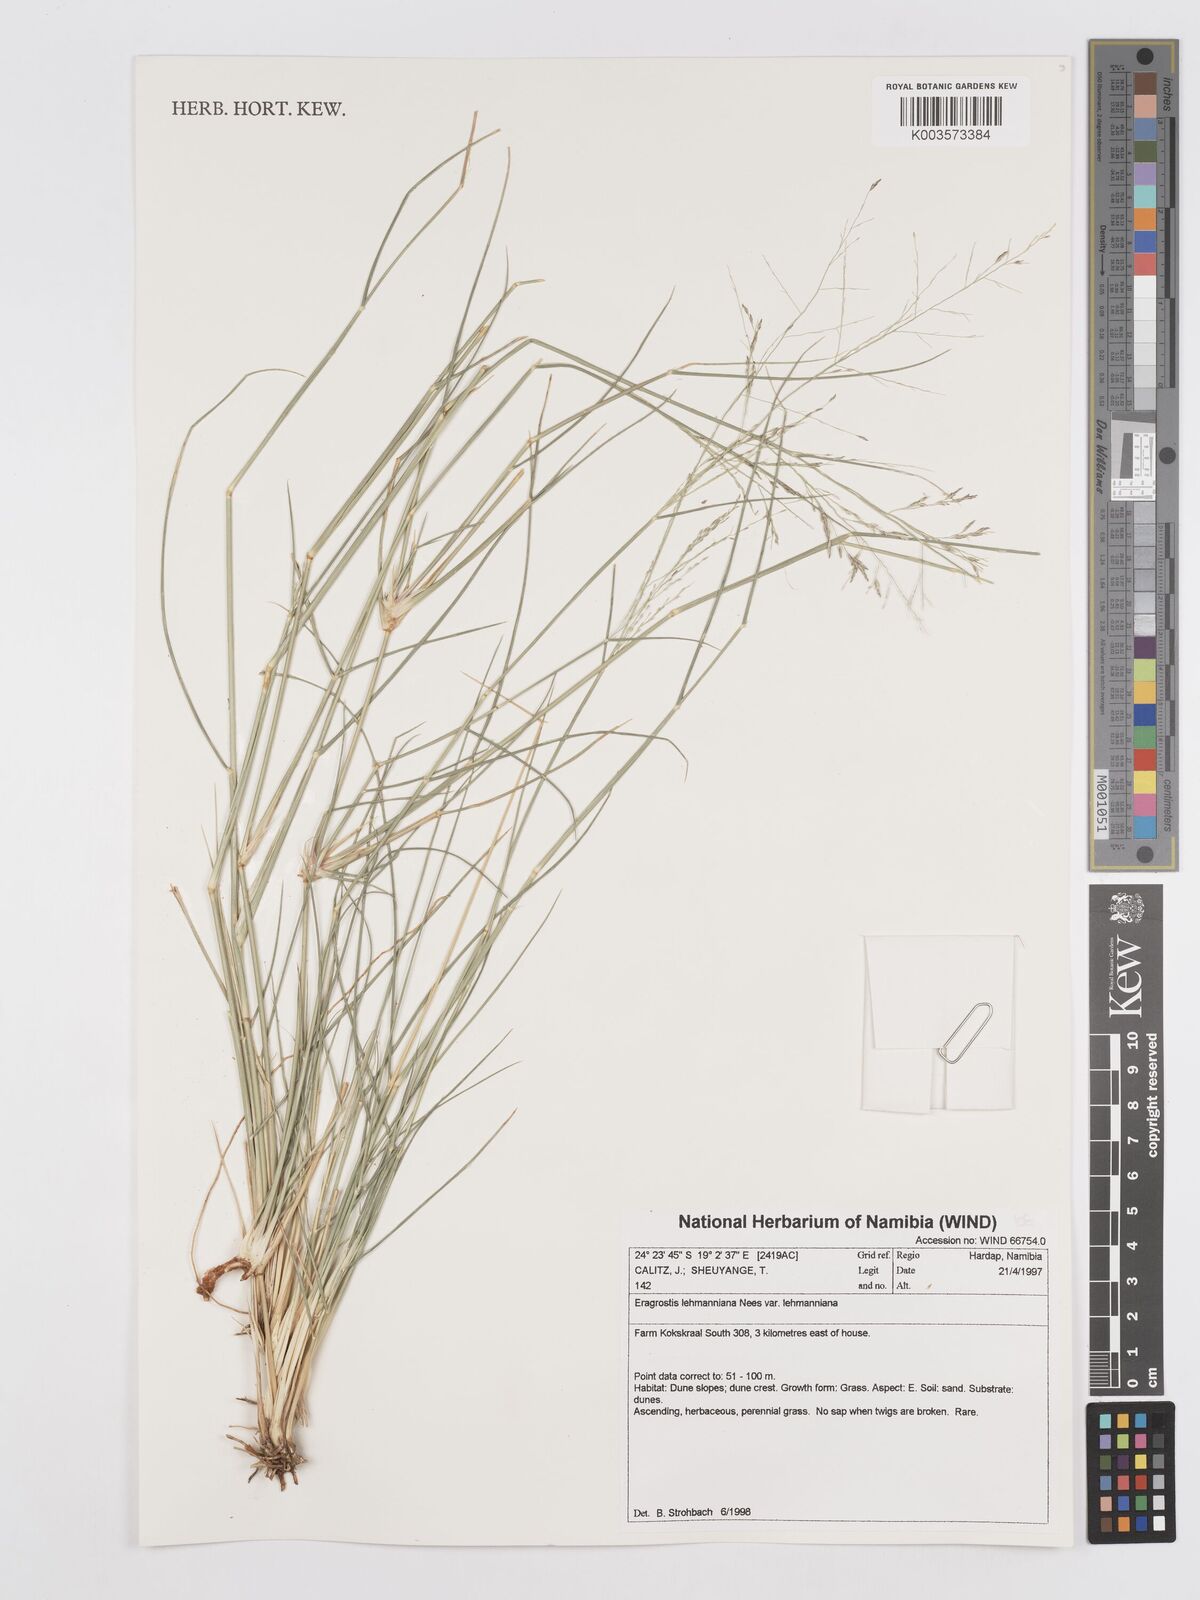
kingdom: Plantae
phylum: Tracheophyta
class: Liliopsida
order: Poales
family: Poaceae
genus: Eragrostis
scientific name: Eragrostis lehmanniana
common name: Lehmann lovegrass
